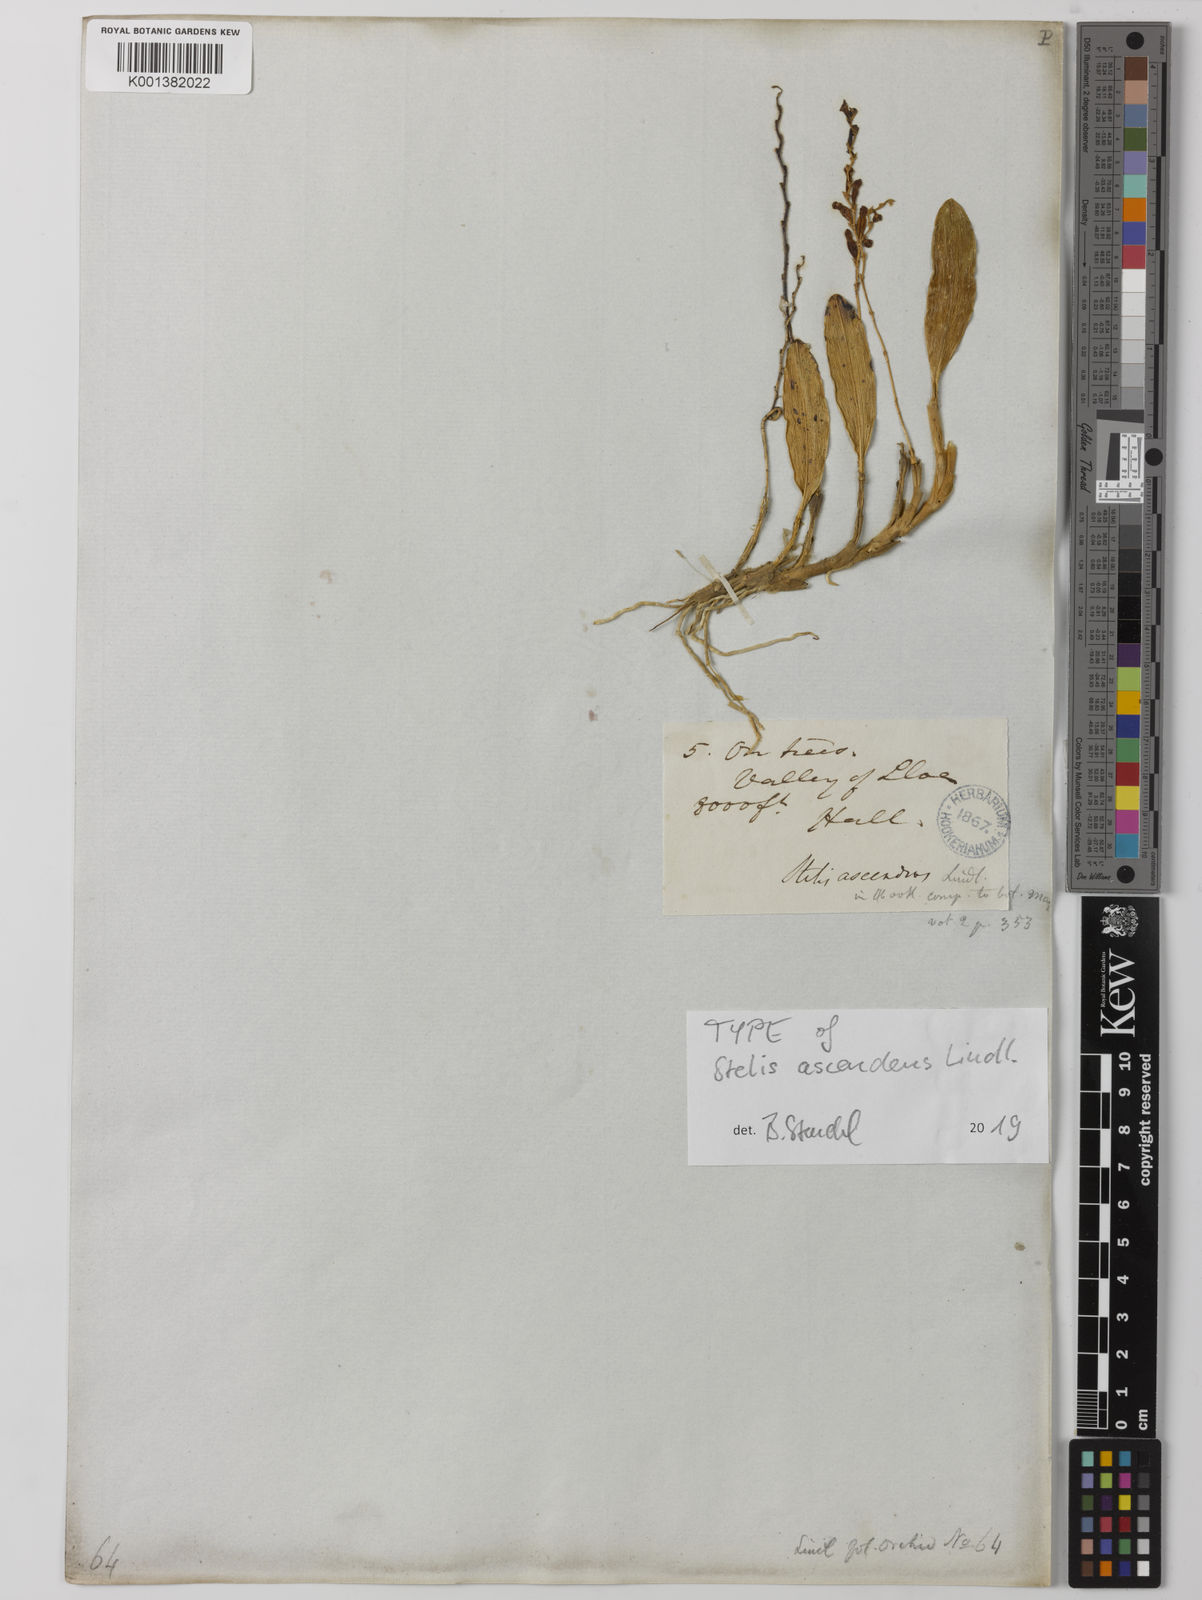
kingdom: Plantae
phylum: Tracheophyta
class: Liliopsida
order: Asparagales
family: Orchidaceae
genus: Stelis
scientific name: Stelis ascendens
